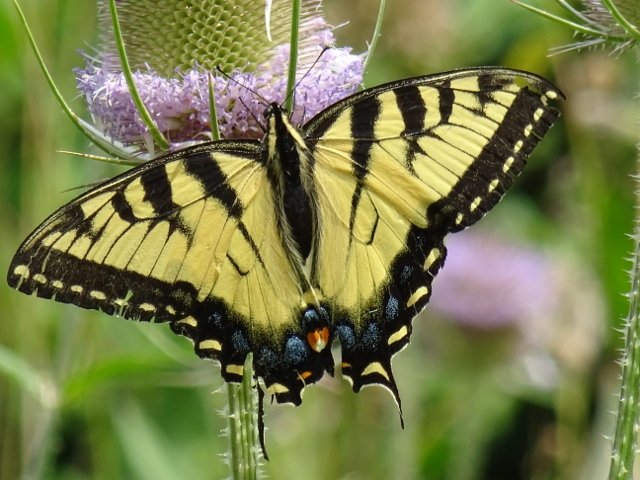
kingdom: Animalia
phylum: Arthropoda
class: Insecta
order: Lepidoptera
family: Papilionidae
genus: Pterourus
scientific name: Pterourus glaucus
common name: Eastern Tiger Swallowtail
